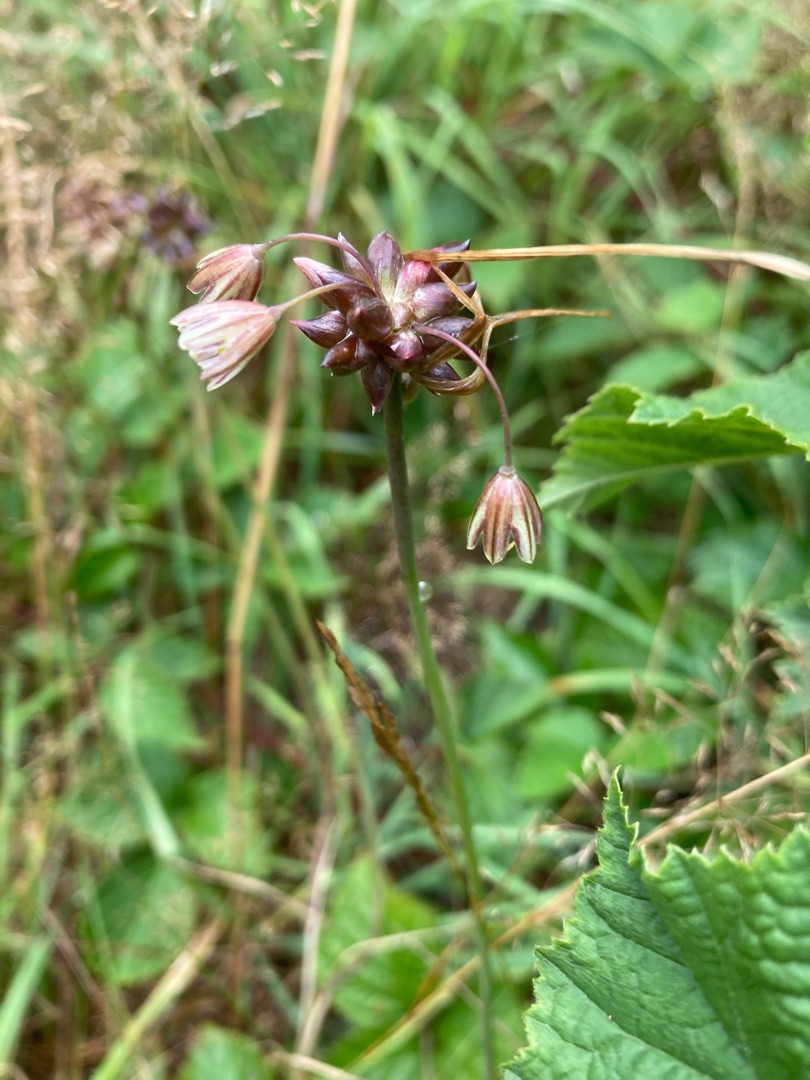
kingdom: Plantae
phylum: Tracheophyta
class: Liliopsida
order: Asparagales
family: Amaryllidaceae
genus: Allium
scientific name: Allium oleraceum
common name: Vild løg
